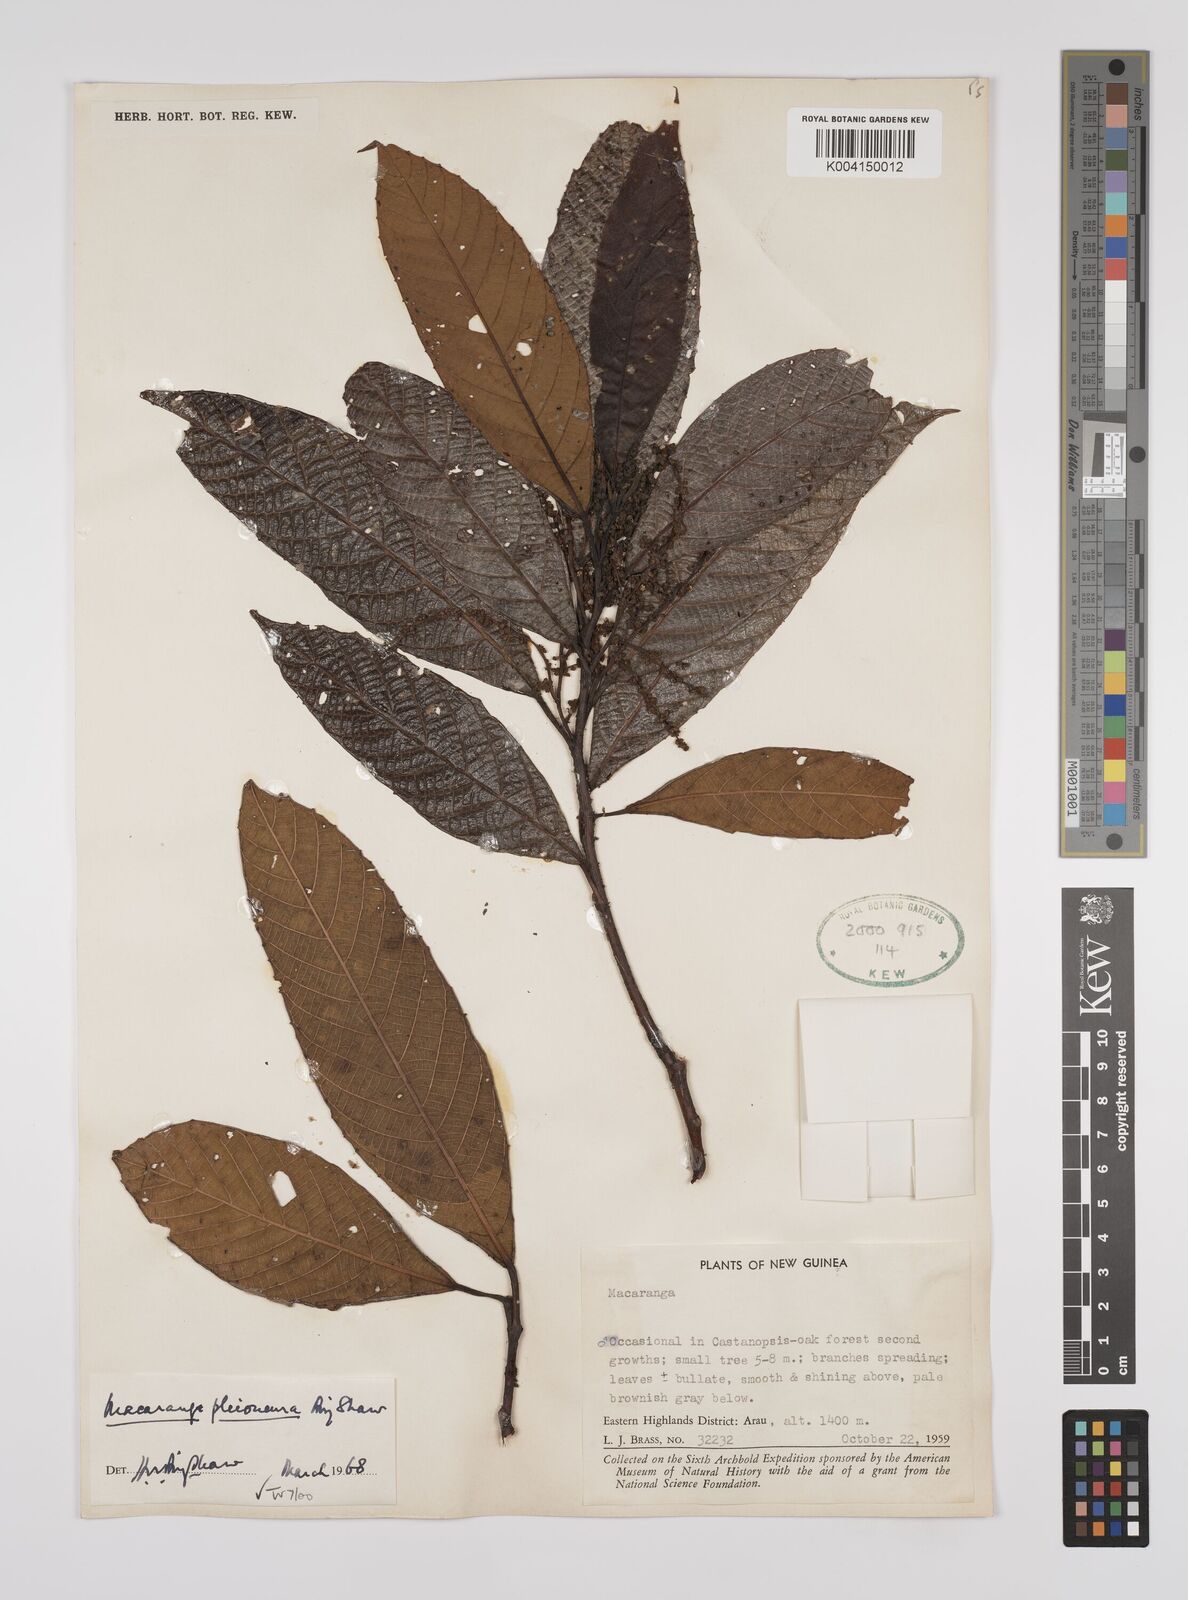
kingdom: Plantae
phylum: Tracheophyta
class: Magnoliopsida
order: Malpighiales
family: Euphorbiaceae
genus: Macaranga
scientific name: Macaranga pleioneura
